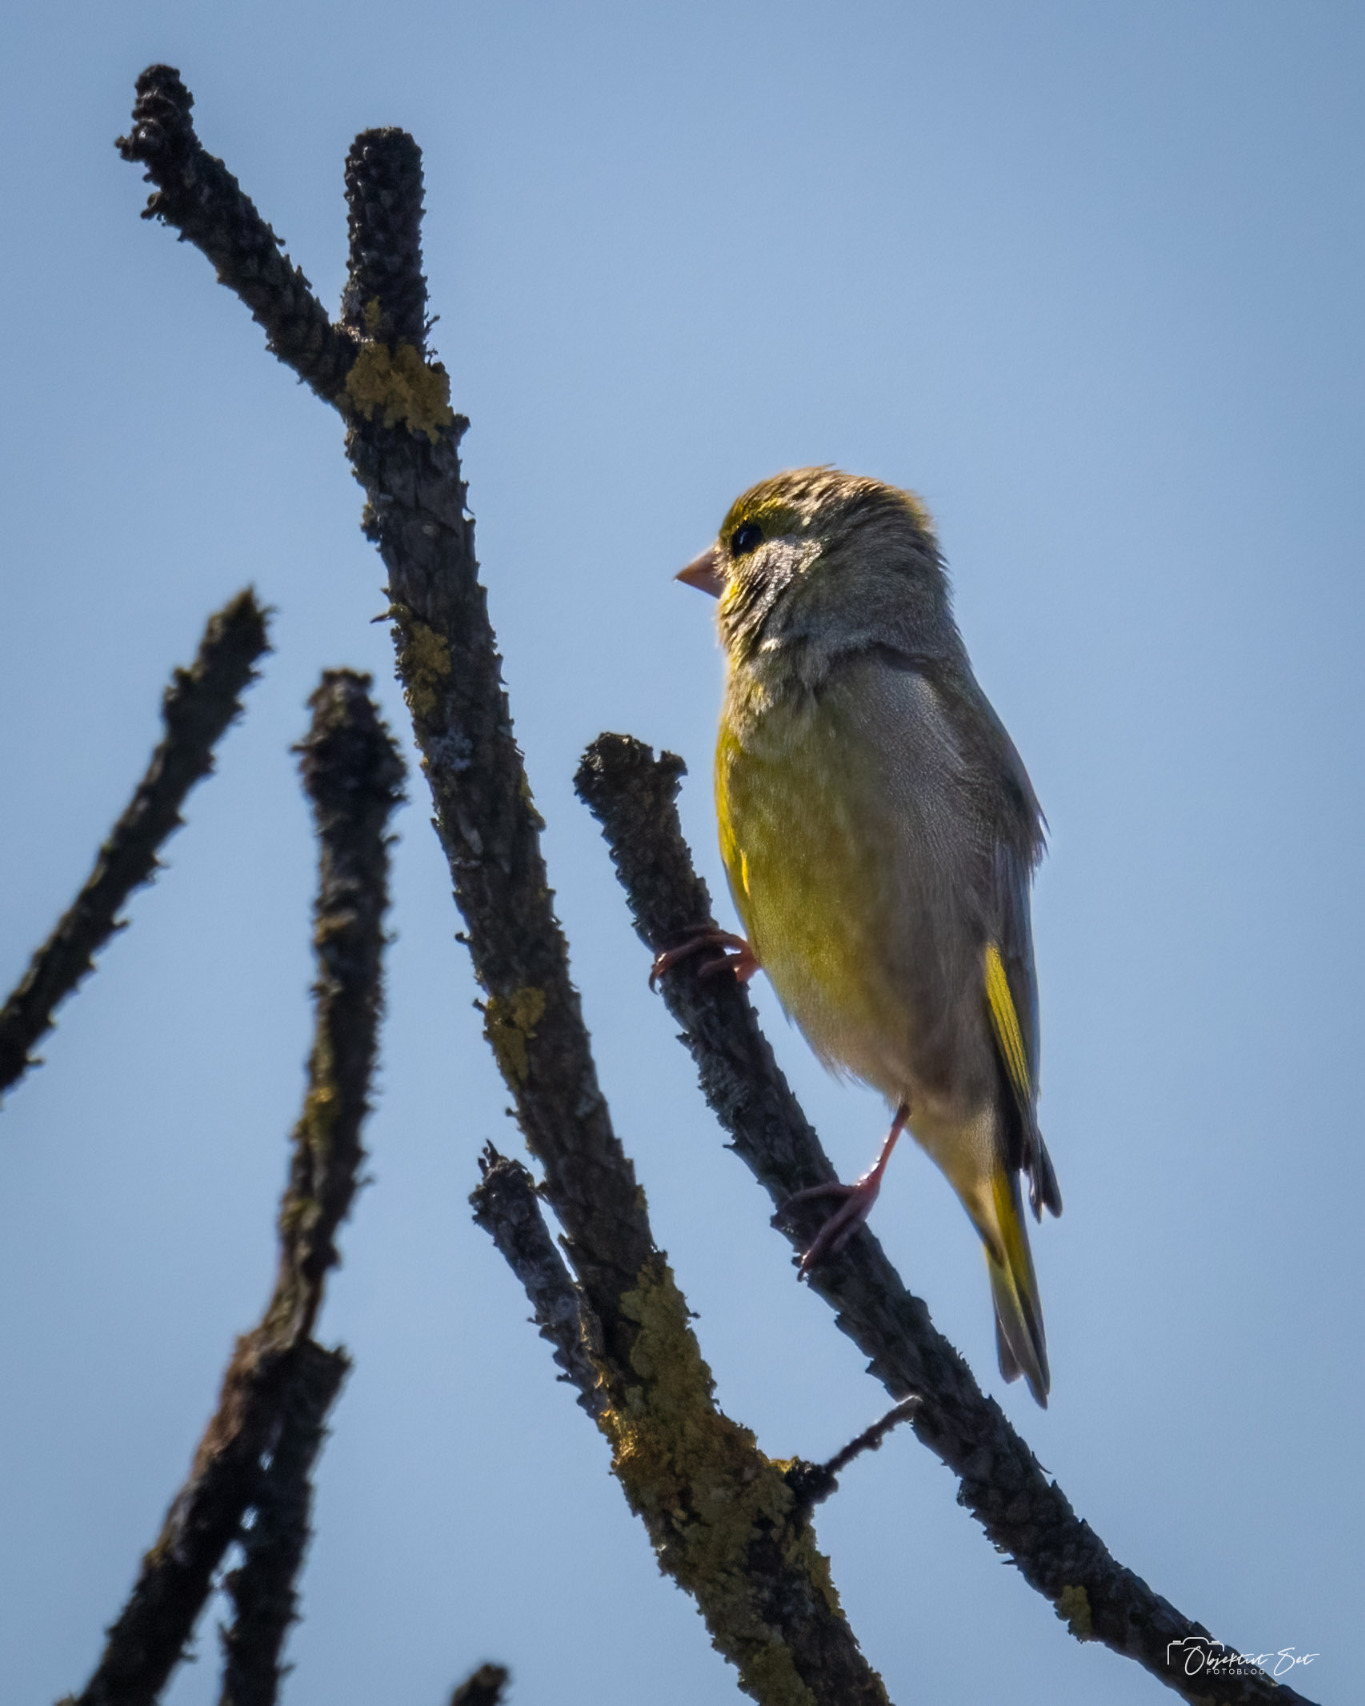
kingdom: Plantae
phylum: Tracheophyta
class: Liliopsida
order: Poales
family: Poaceae
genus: Chloris
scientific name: Chloris chloris
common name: Grønirisk
